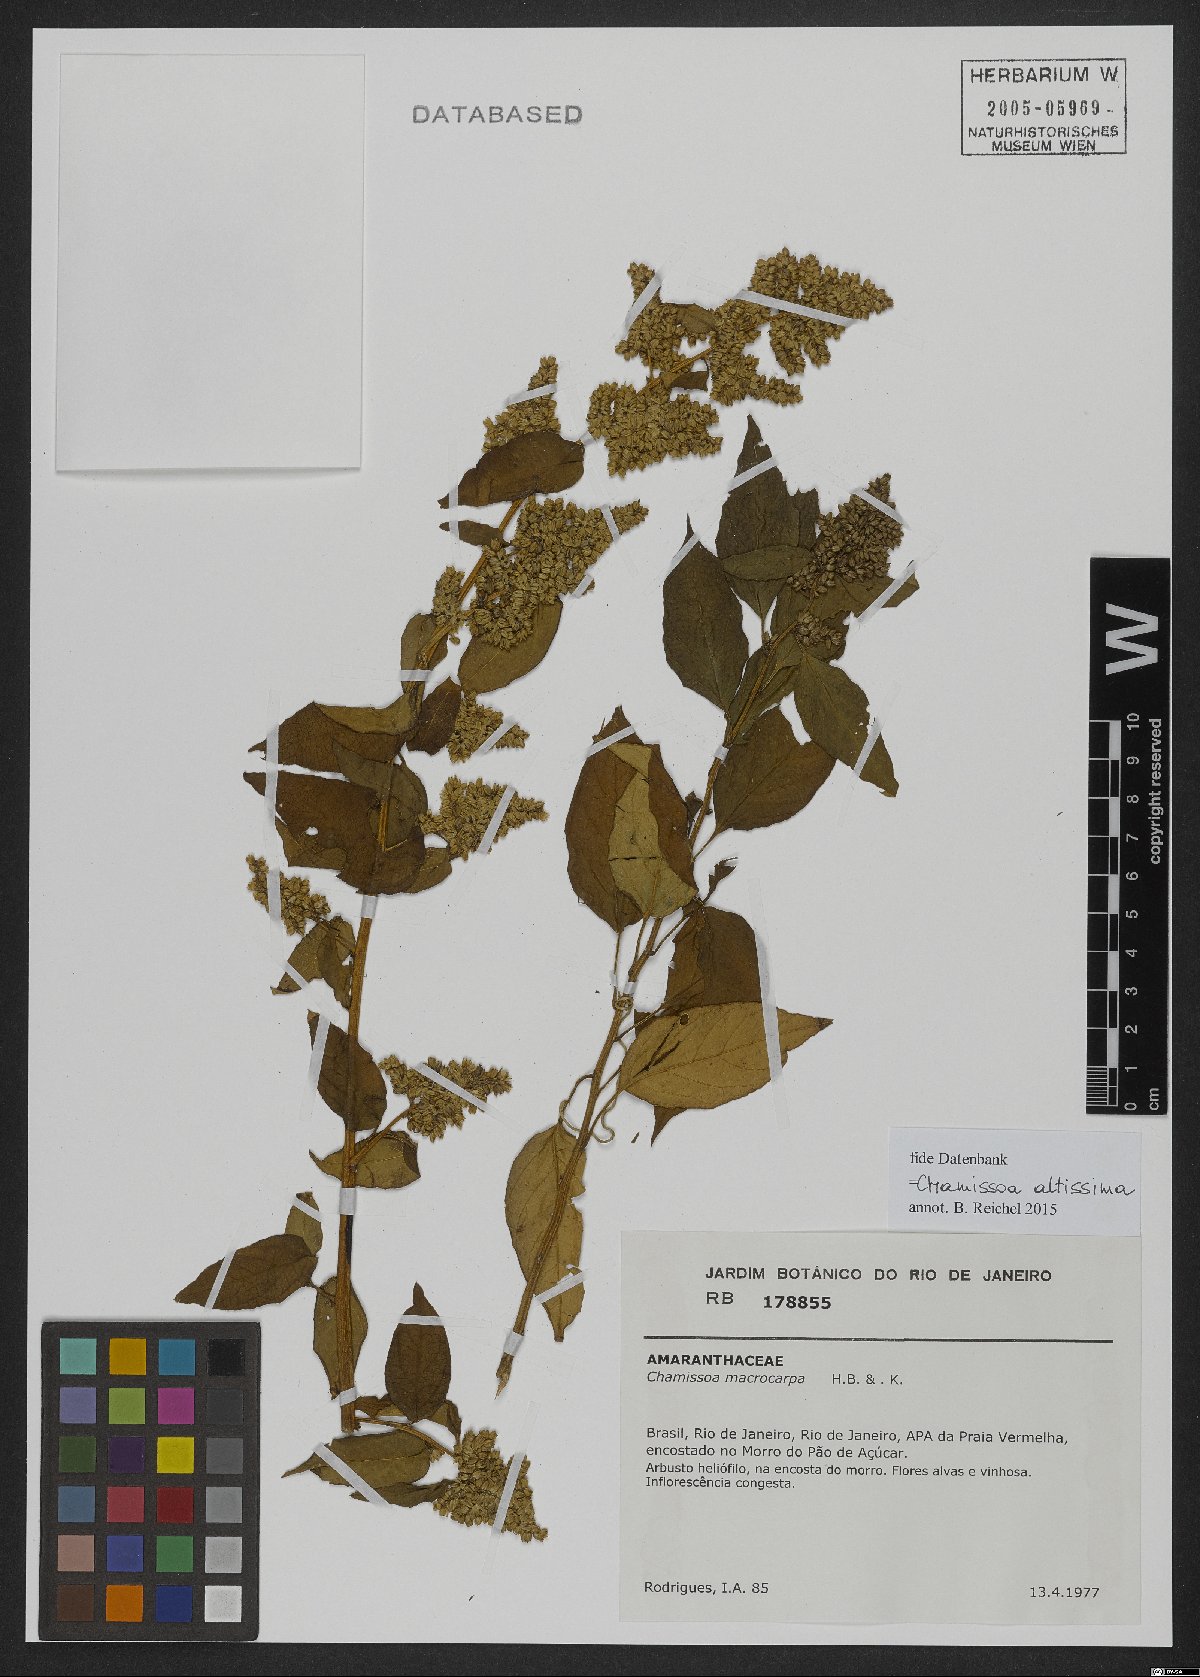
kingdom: Plantae
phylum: Tracheophyta
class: Magnoliopsida
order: Caryophyllales
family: Amaranthaceae
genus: Chamissoa
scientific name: Chamissoa altissima
